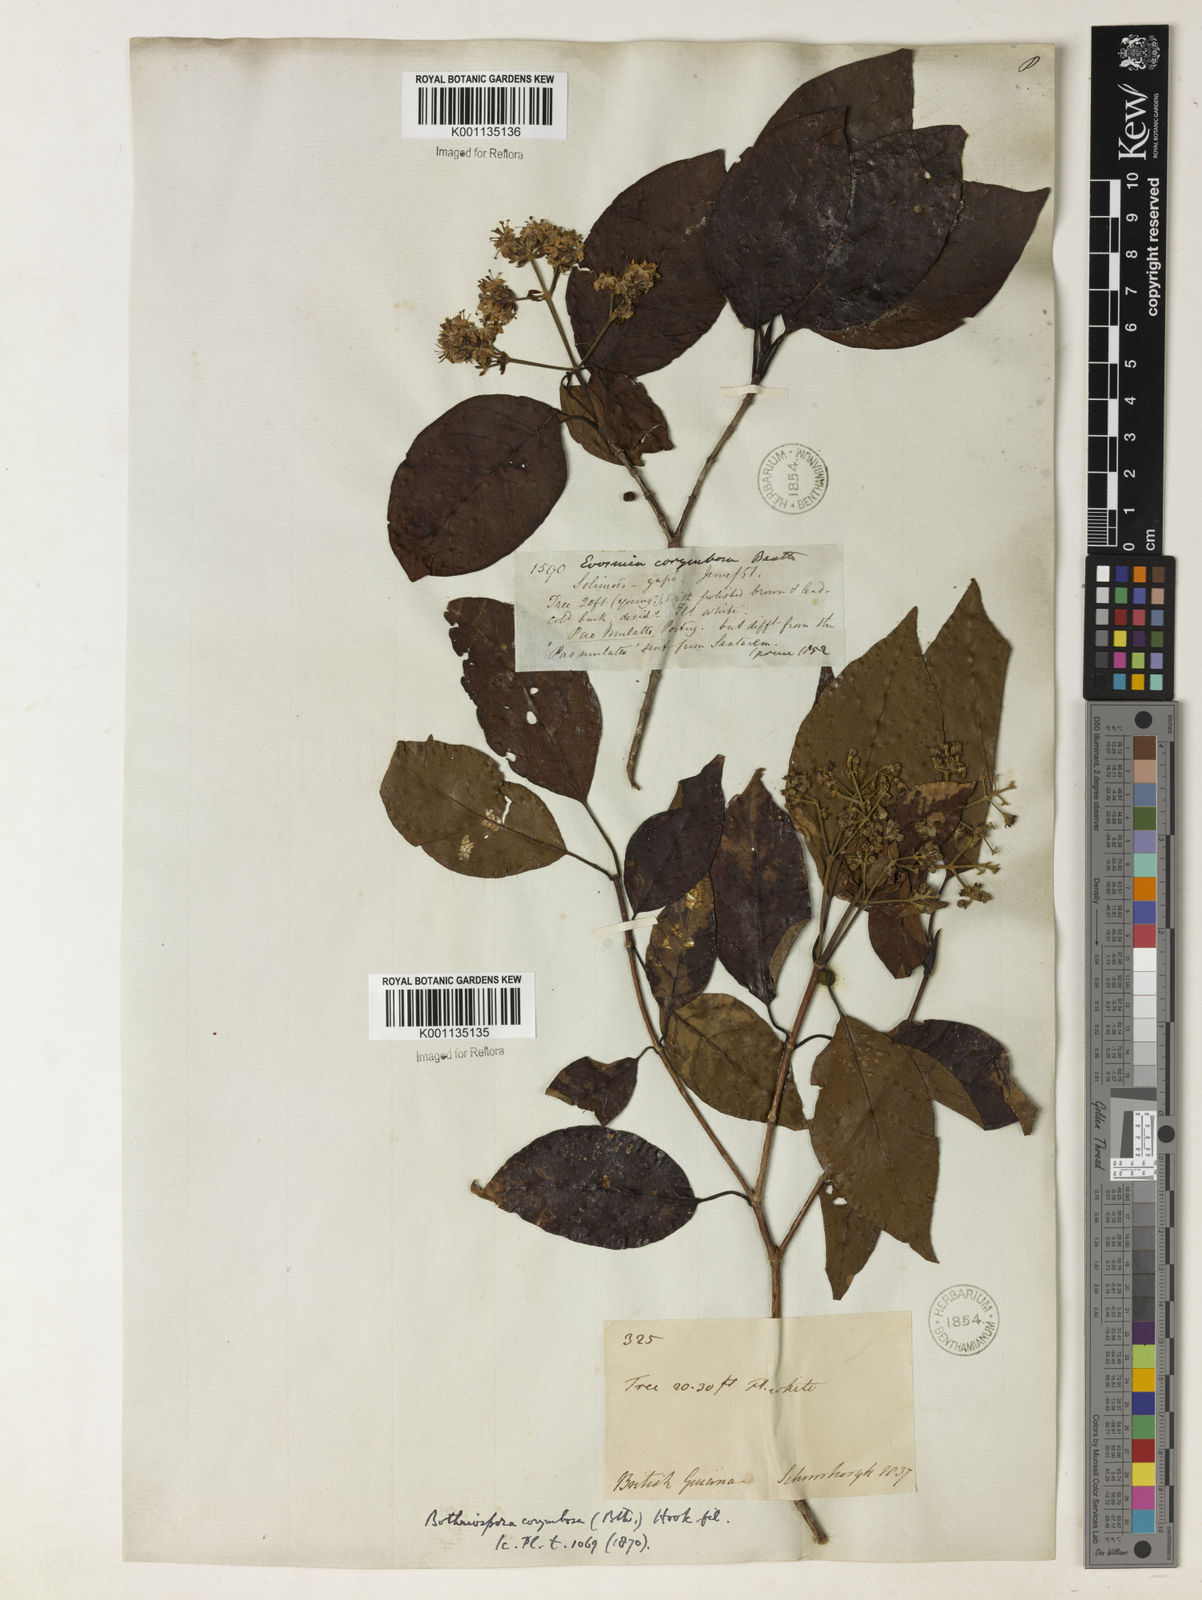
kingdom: Plantae
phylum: Tracheophyta
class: Magnoliopsida
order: Gentianales
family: Rubiaceae
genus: Bothriospora
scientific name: Bothriospora corymbosa
